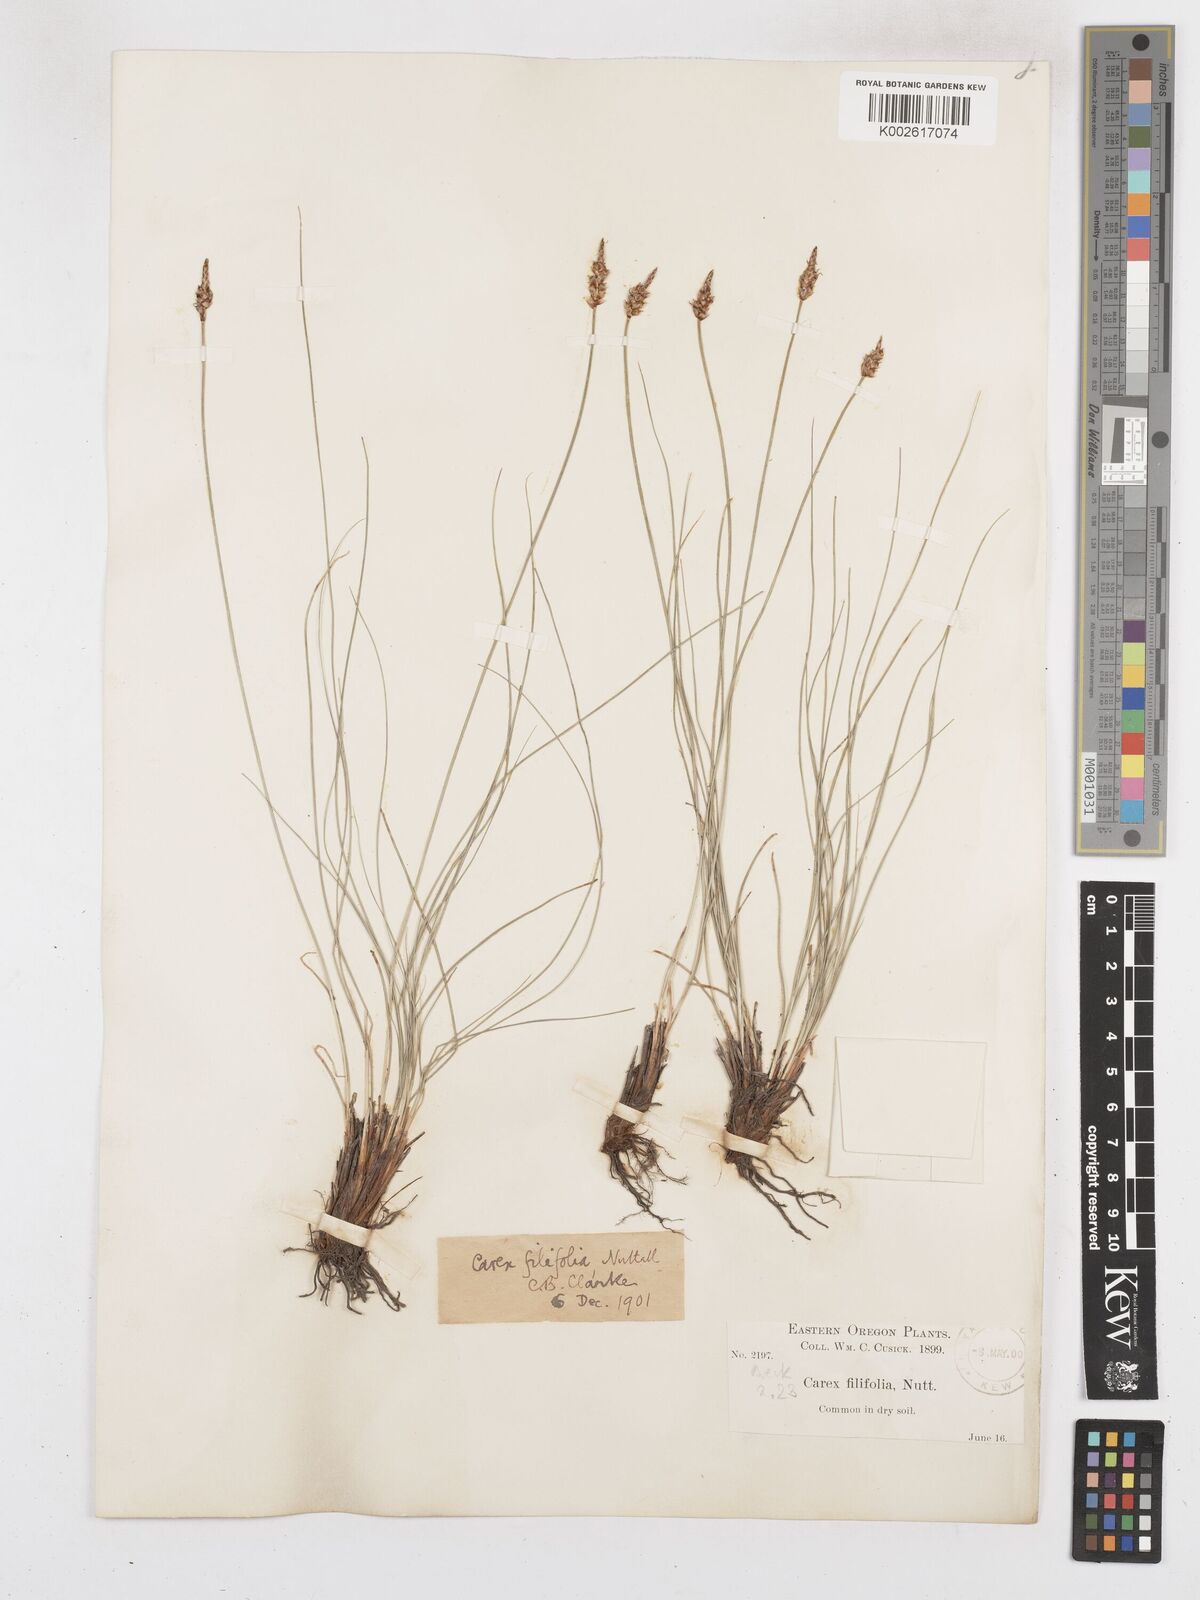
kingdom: Plantae
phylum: Tracheophyta
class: Liliopsida
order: Poales
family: Cyperaceae
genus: Carex
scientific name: Carex filifolia
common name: Threadleaf sedge
